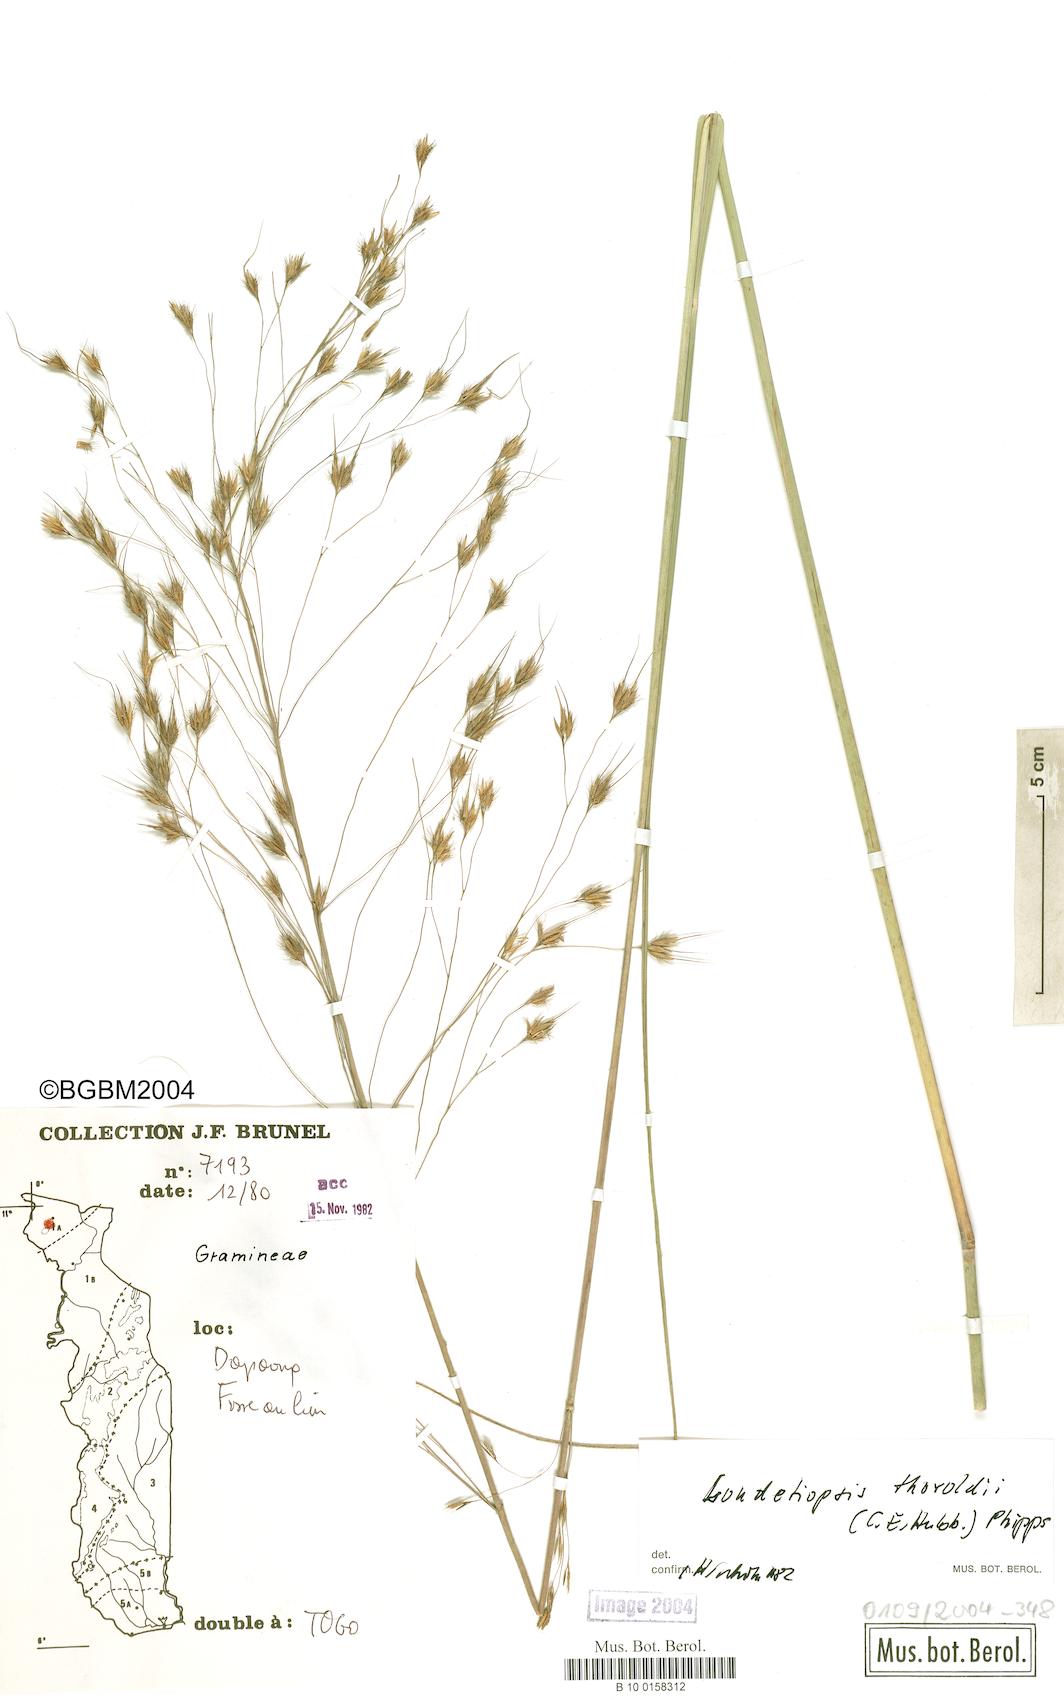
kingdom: Plantae
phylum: Tracheophyta
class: Liliopsida
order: Poales
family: Poaceae
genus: Loudetiopsis
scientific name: Loudetiopsis thoroldii
